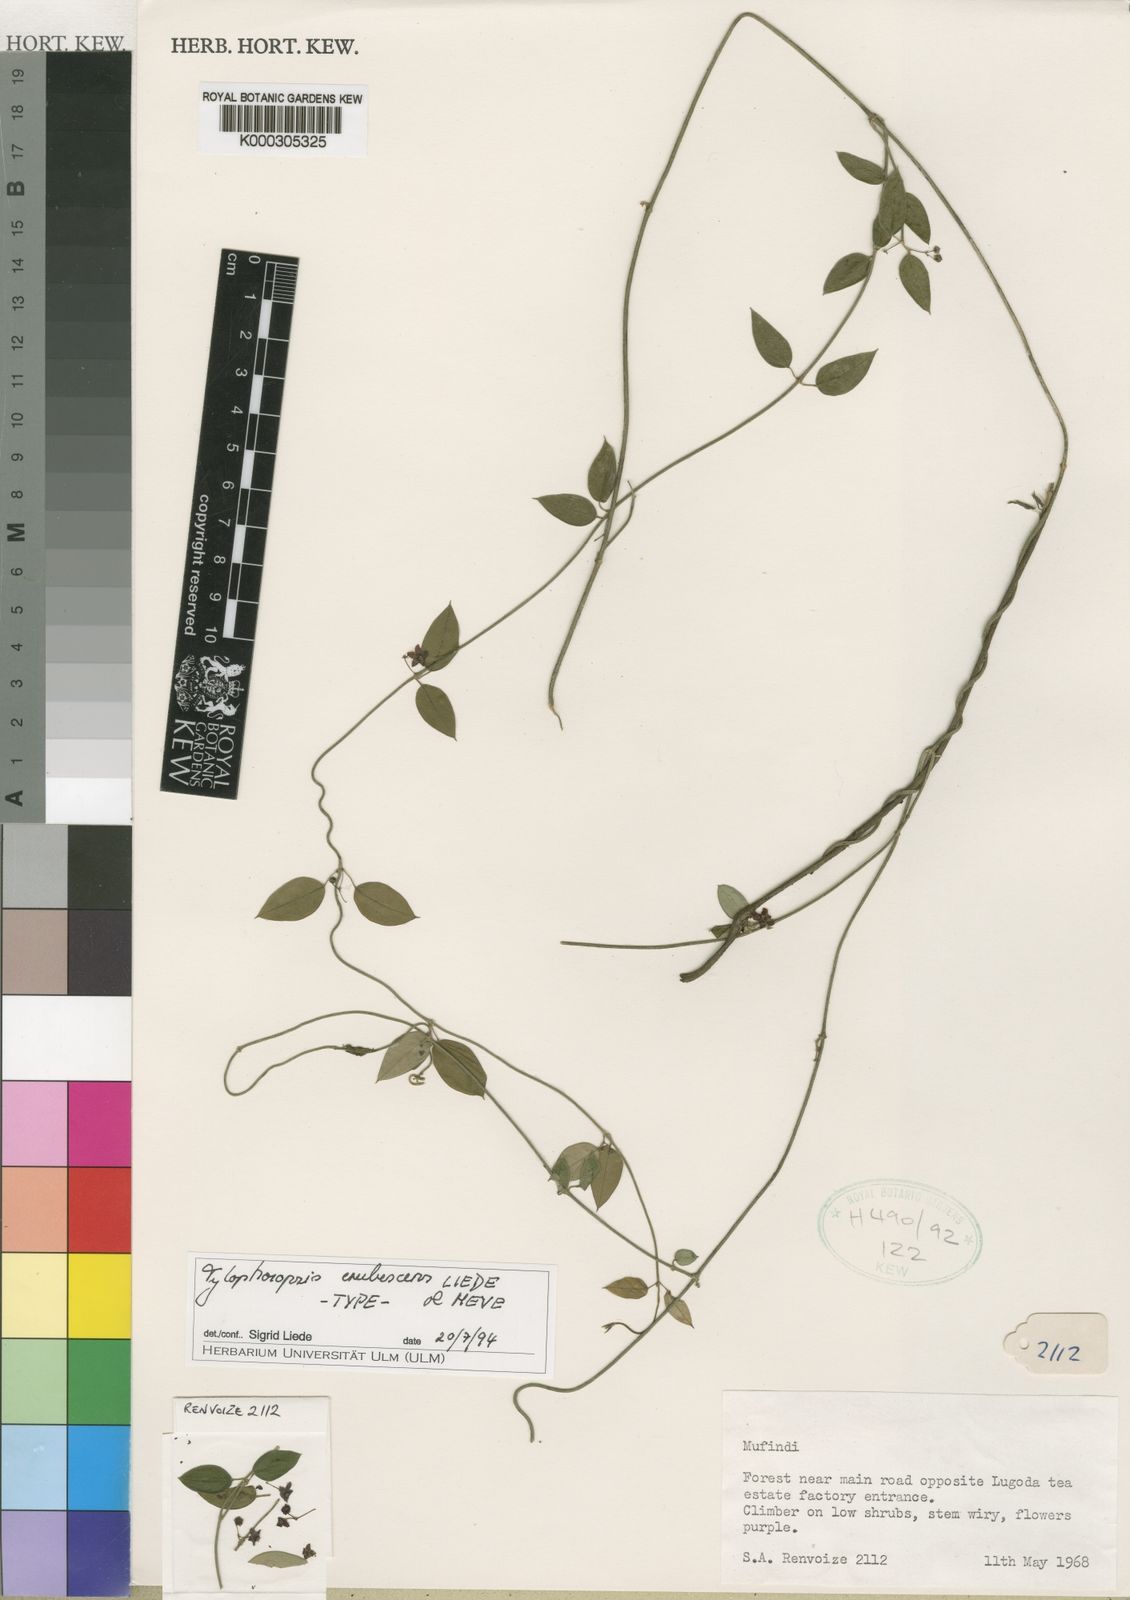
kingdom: Plantae
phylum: Tracheophyta
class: Magnoliopsida
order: Gentianales
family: Apocynaceae
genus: Vincetoxicum
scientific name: Vincetoxicum
